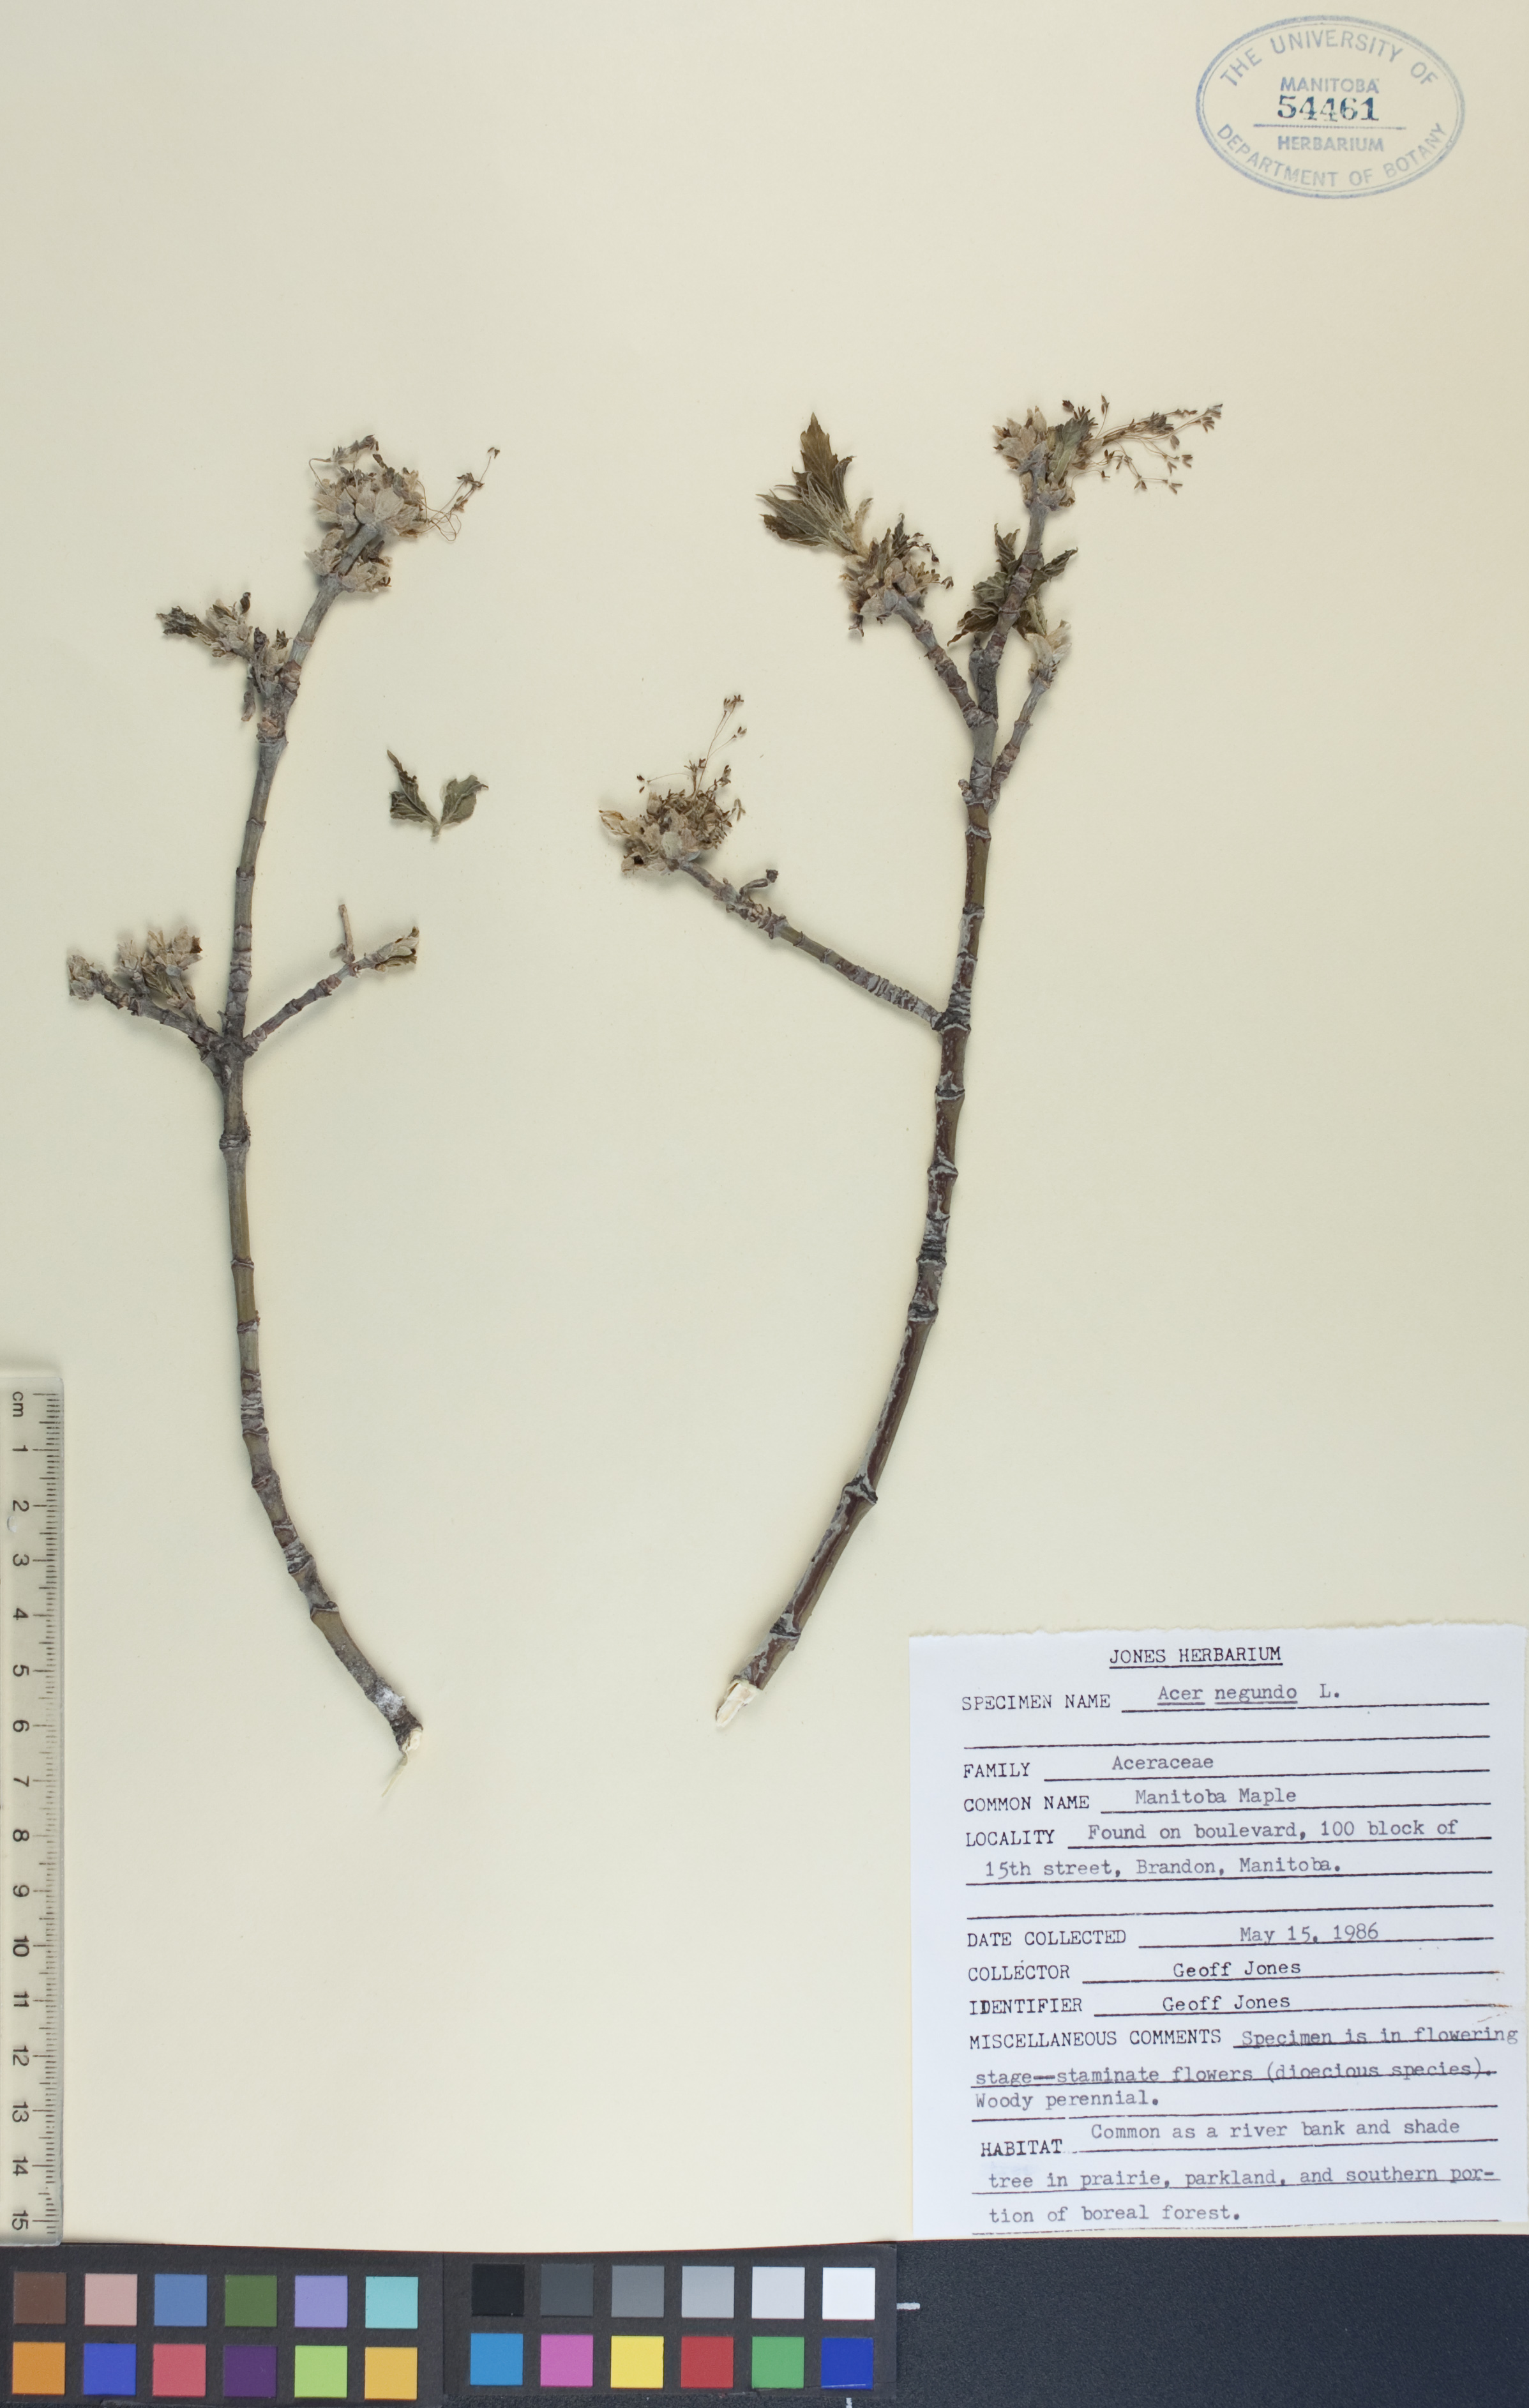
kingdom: Plantae
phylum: Tracheophyta
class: Magnoliopsida
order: Sapindales
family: Sapindaceae
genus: Acer
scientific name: Acer negundo
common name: Ashleaf maple
